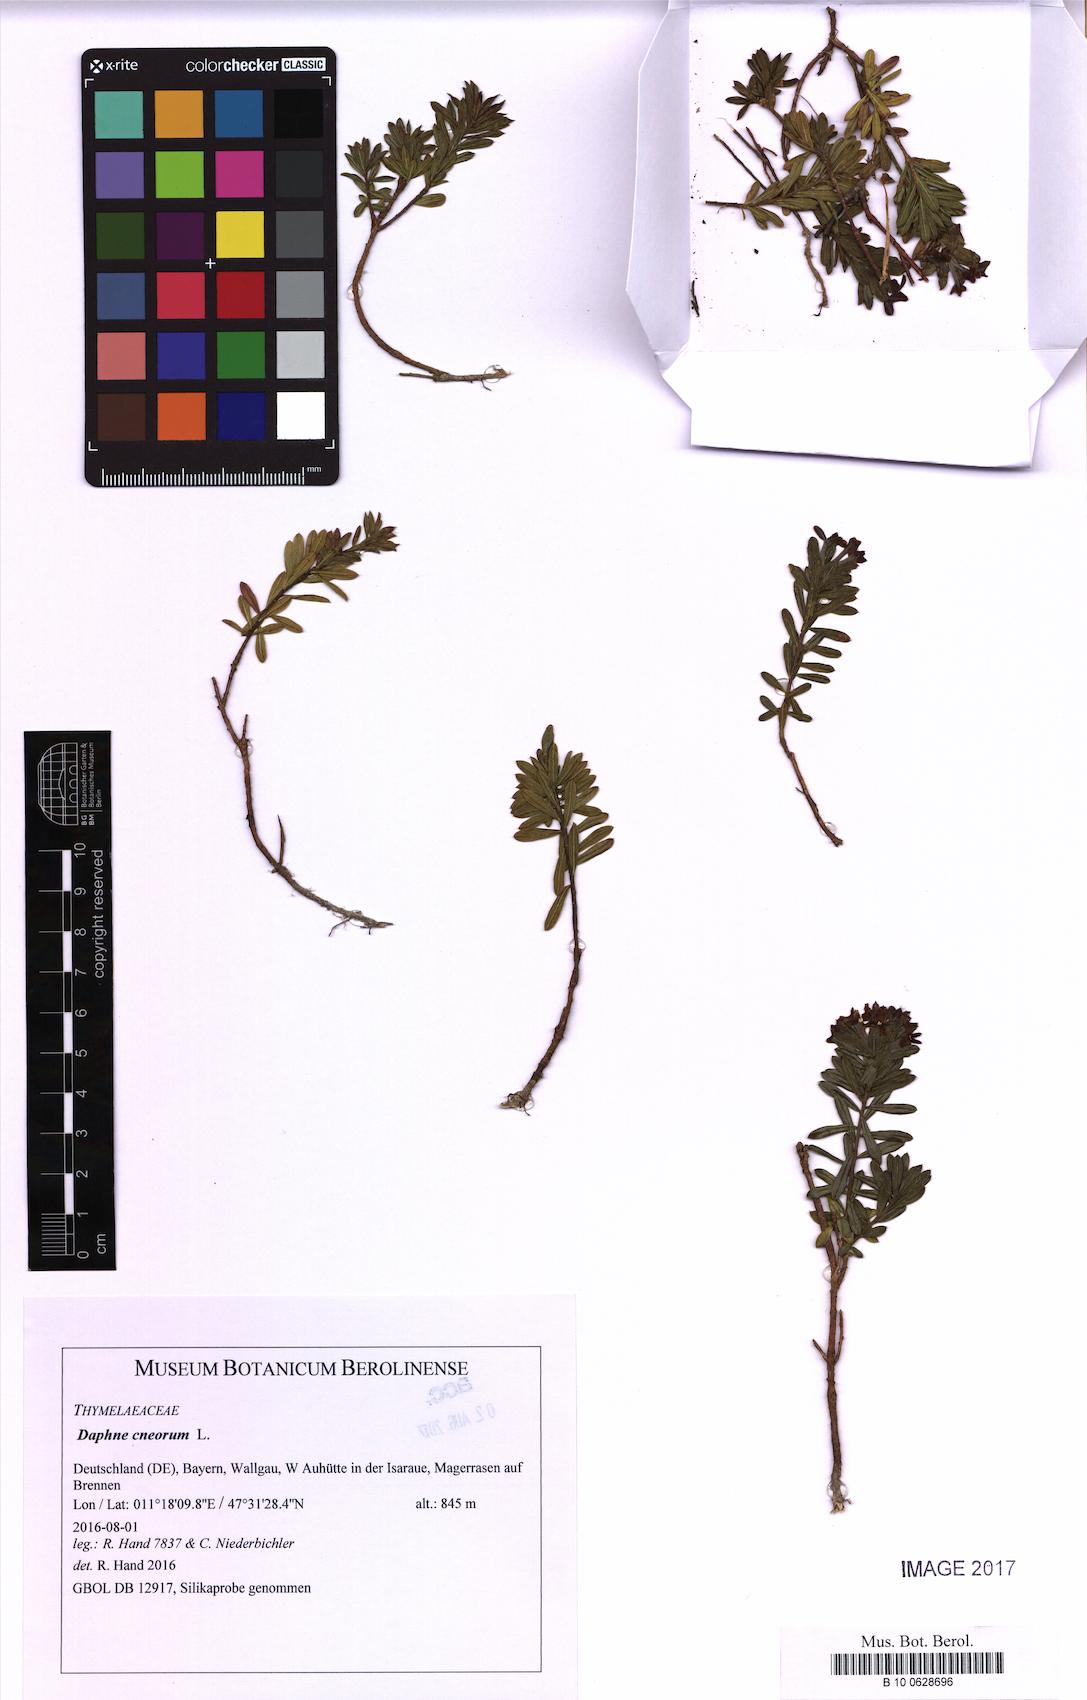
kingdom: Plantae
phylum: Tracheophyta
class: Magnoliopsida
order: Malvales
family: Thymelaeaceae
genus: Daphne
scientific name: Daphne cneorum
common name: Garland-flower
